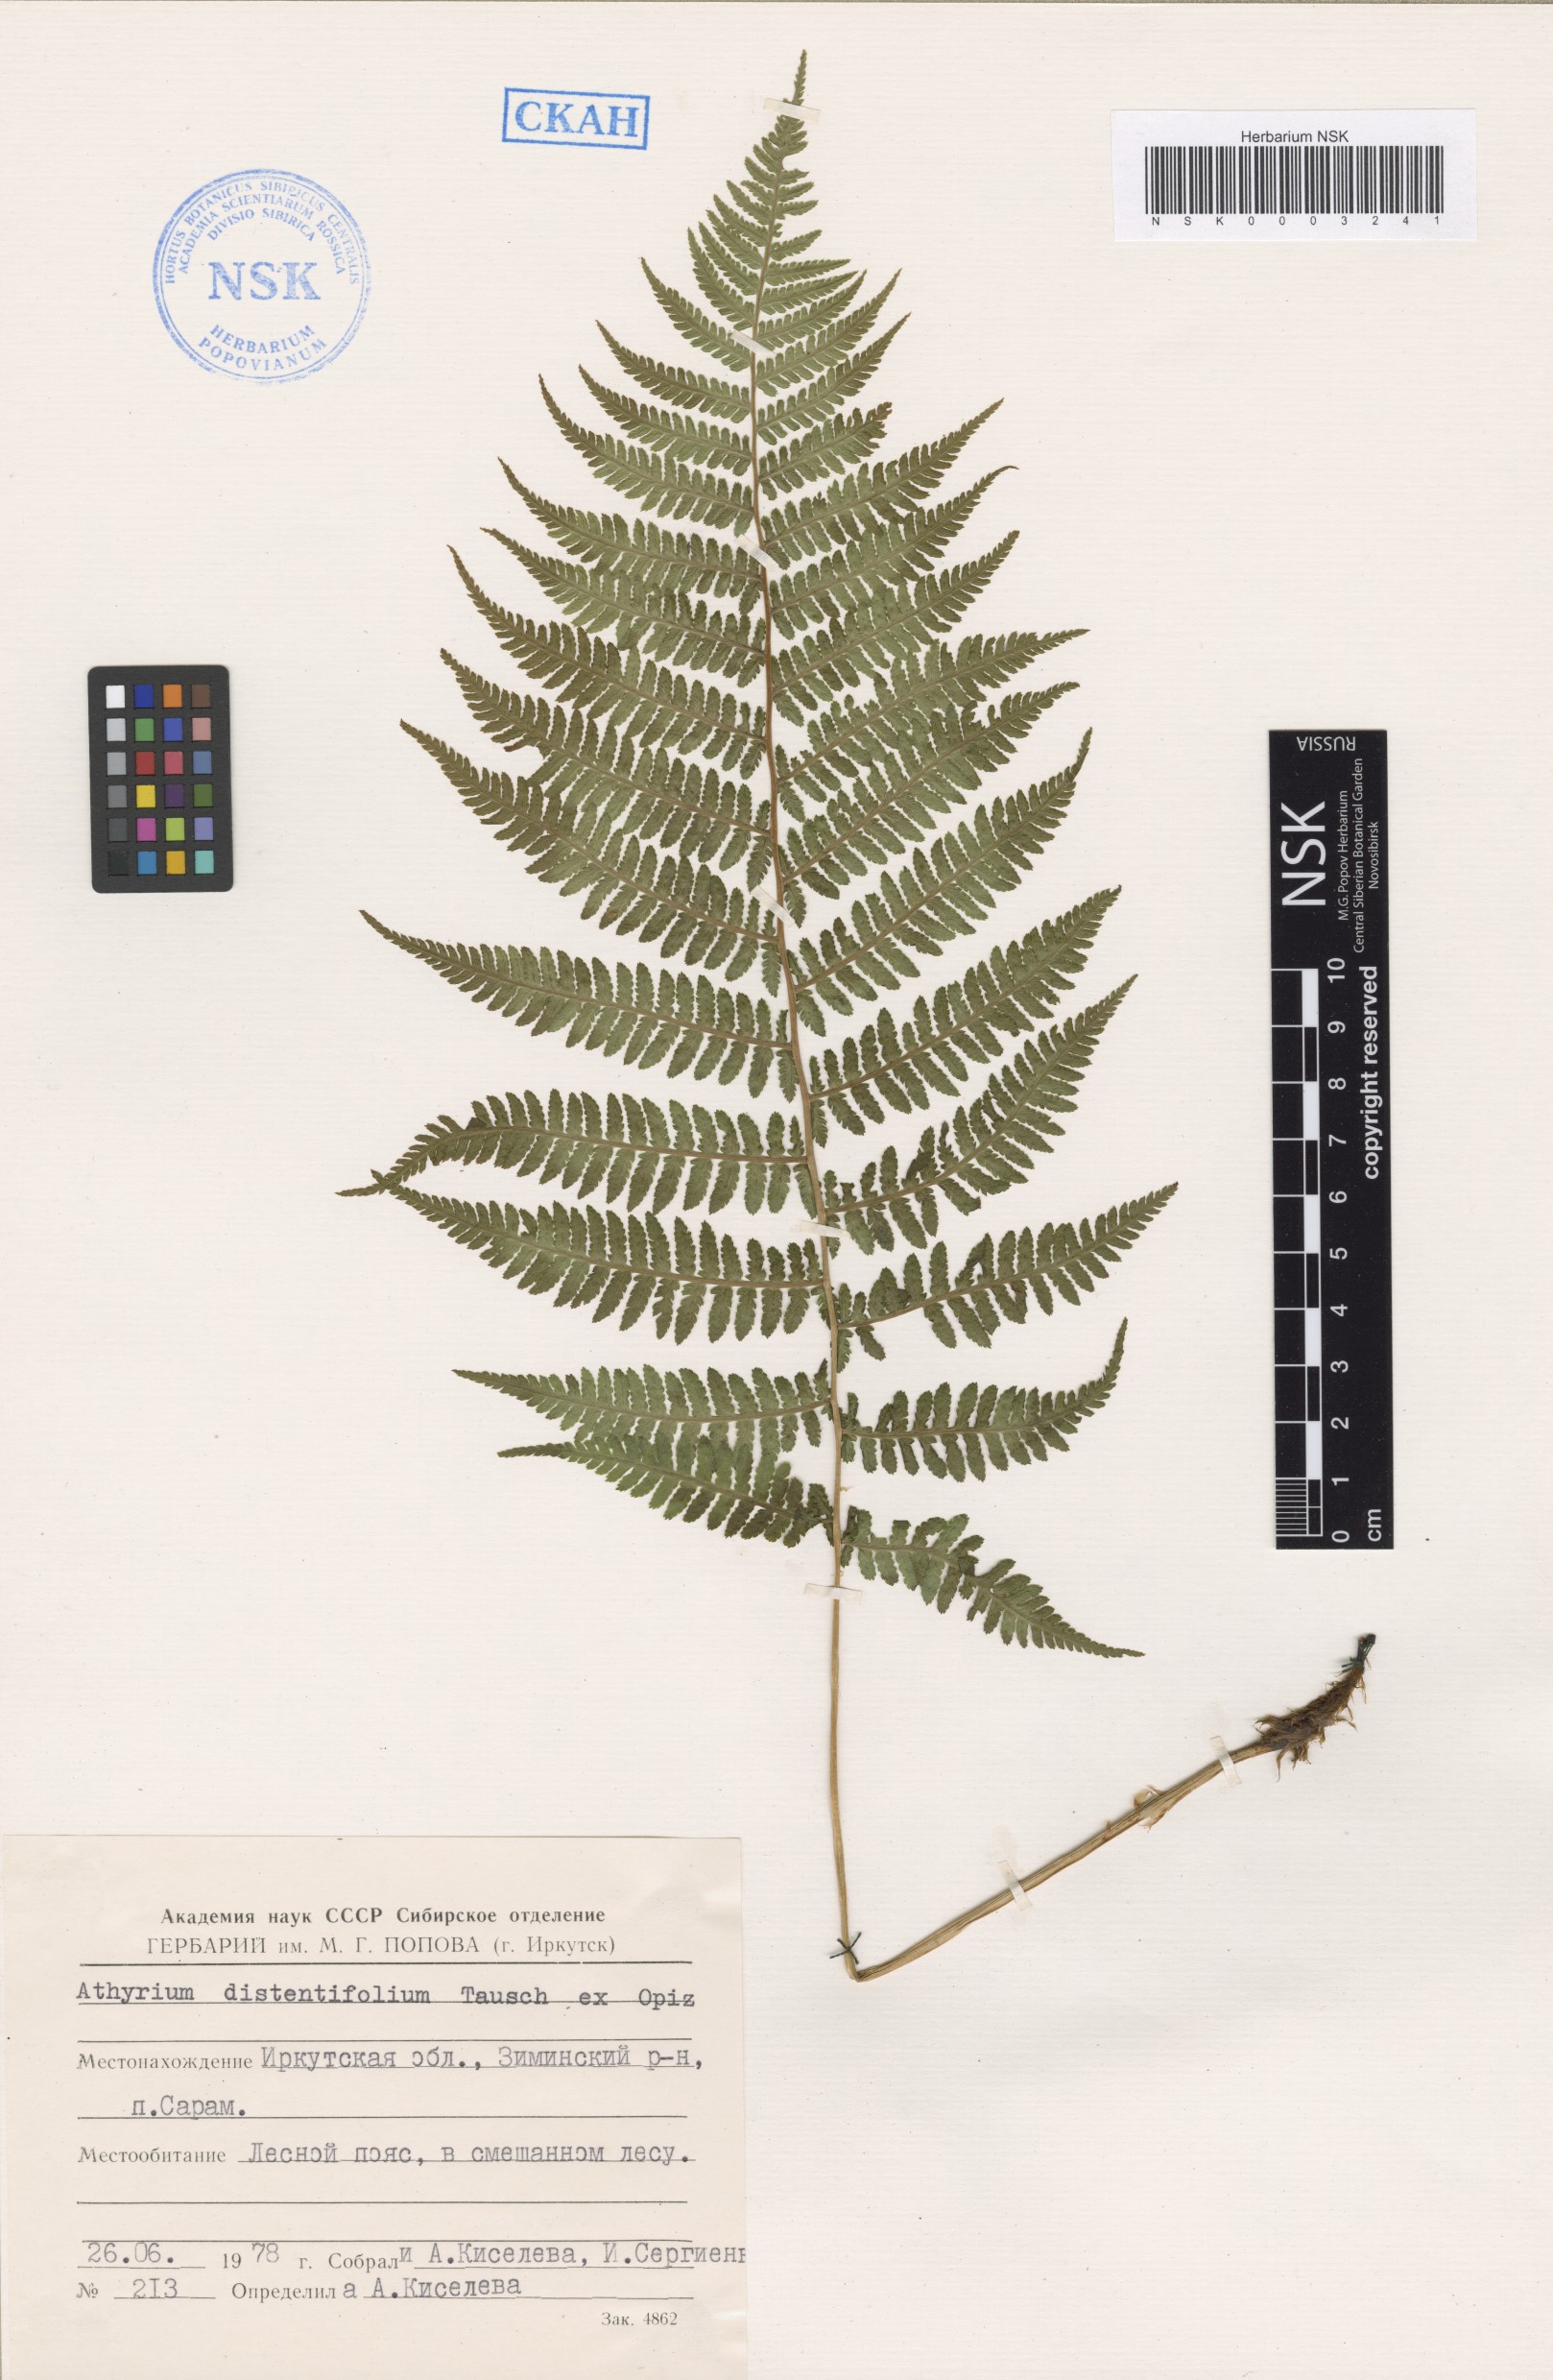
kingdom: Plantae
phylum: Tracheophyta
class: Polypodiopsida
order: Polypodiales
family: Athyriaceae
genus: Pseudathyrium
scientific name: Pseudathyrium alpestre
